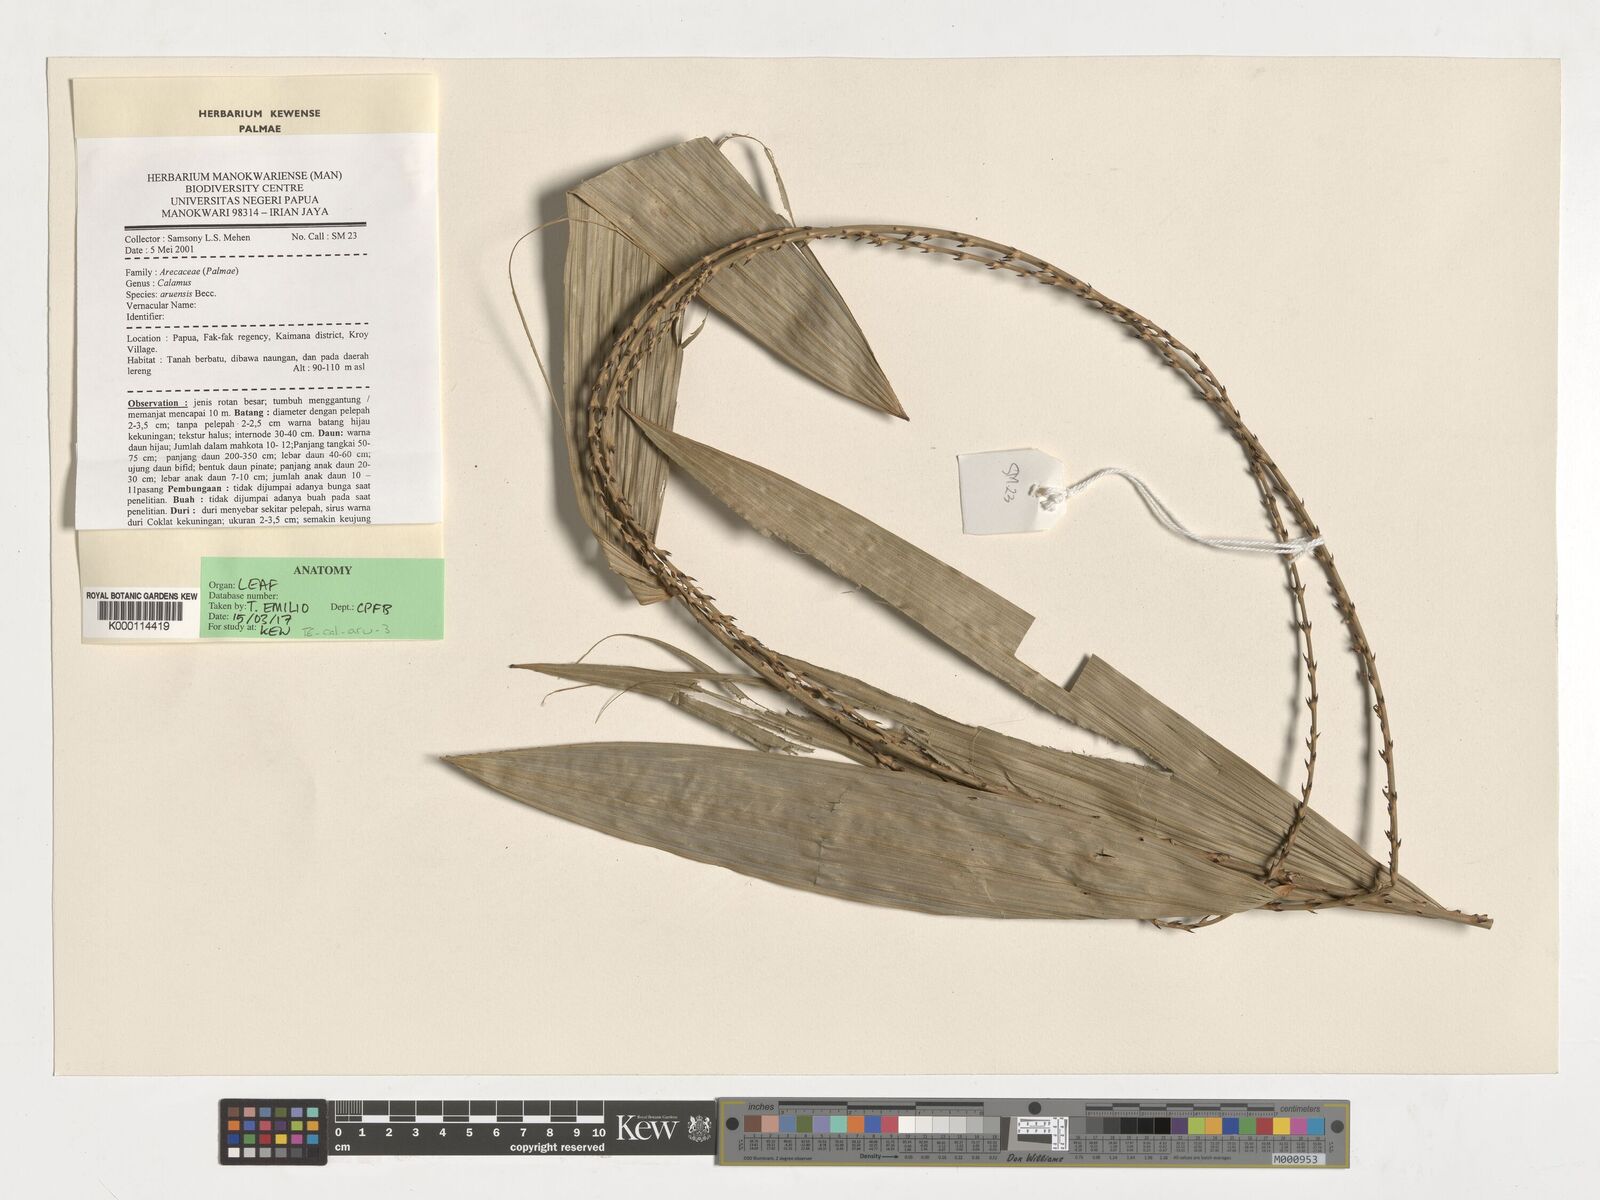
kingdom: Plantae
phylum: Tracheophyta
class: Liliopsida
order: Arecales
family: Arecaceae
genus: Calamus
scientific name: Calamus aruensis
